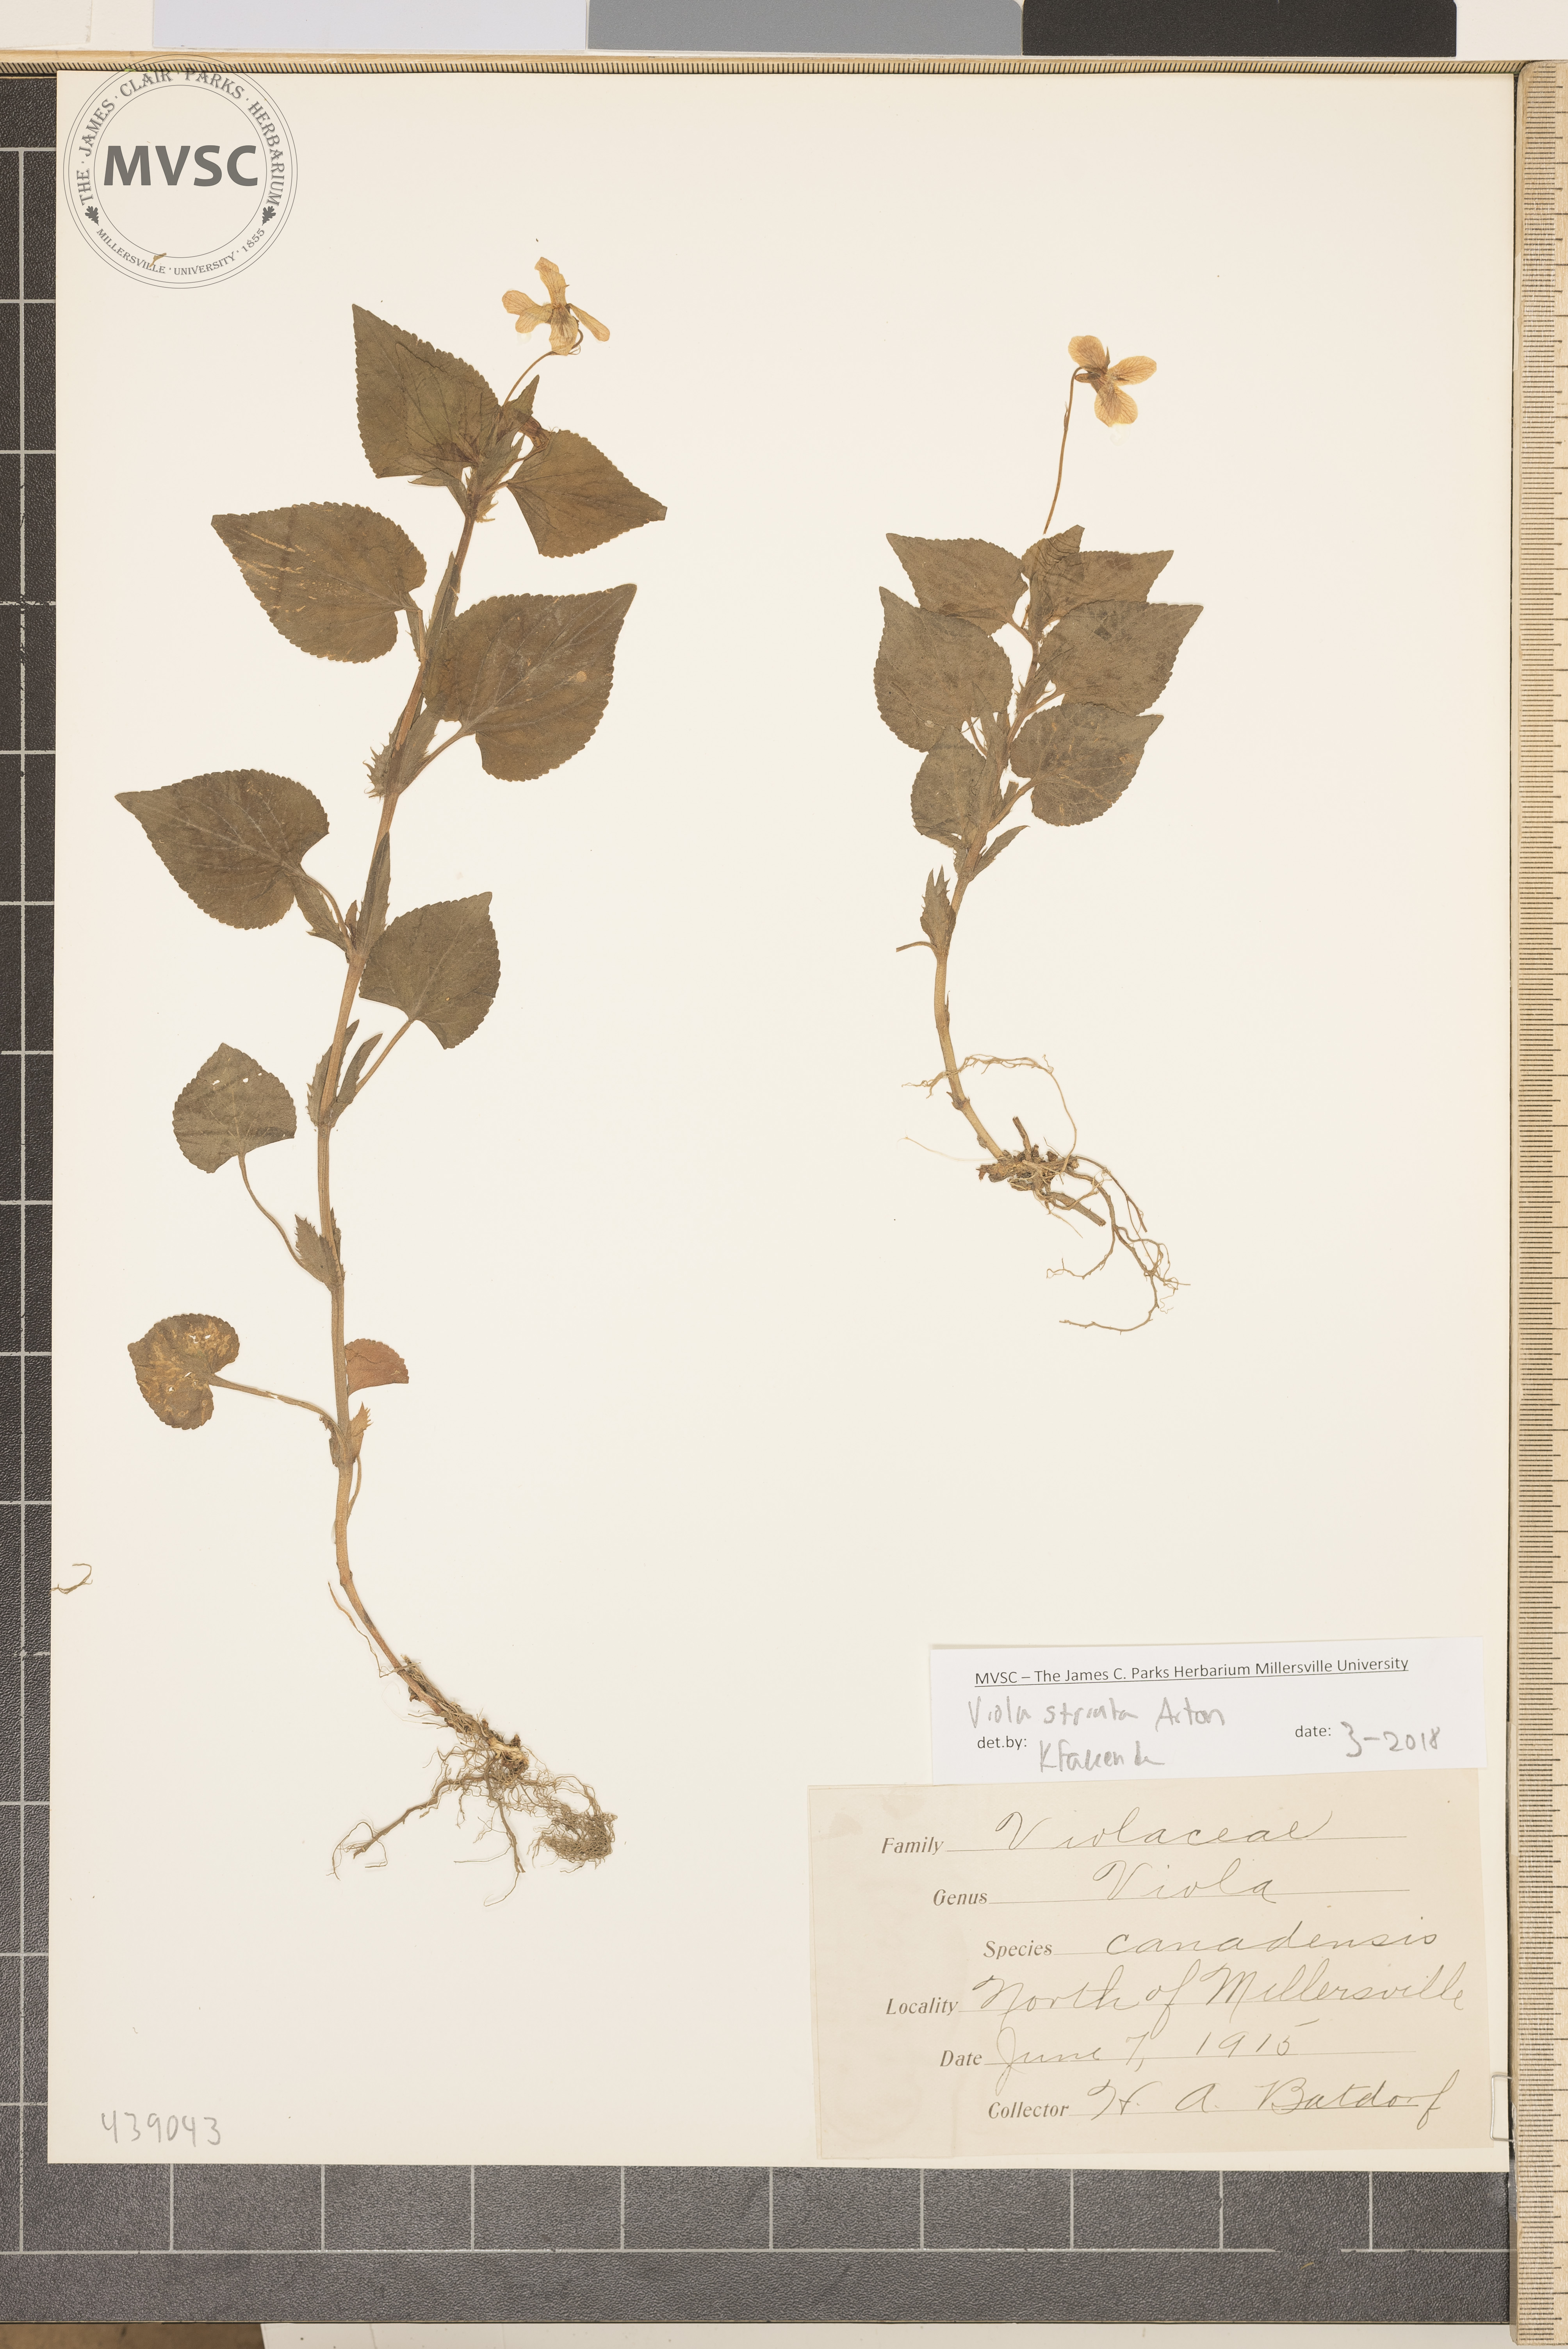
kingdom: Plantae
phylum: Tracheophyta
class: Magnoliopsida
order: Malpighiales
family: Violaceae
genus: Viola
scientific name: Viola striata
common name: Cream violet
